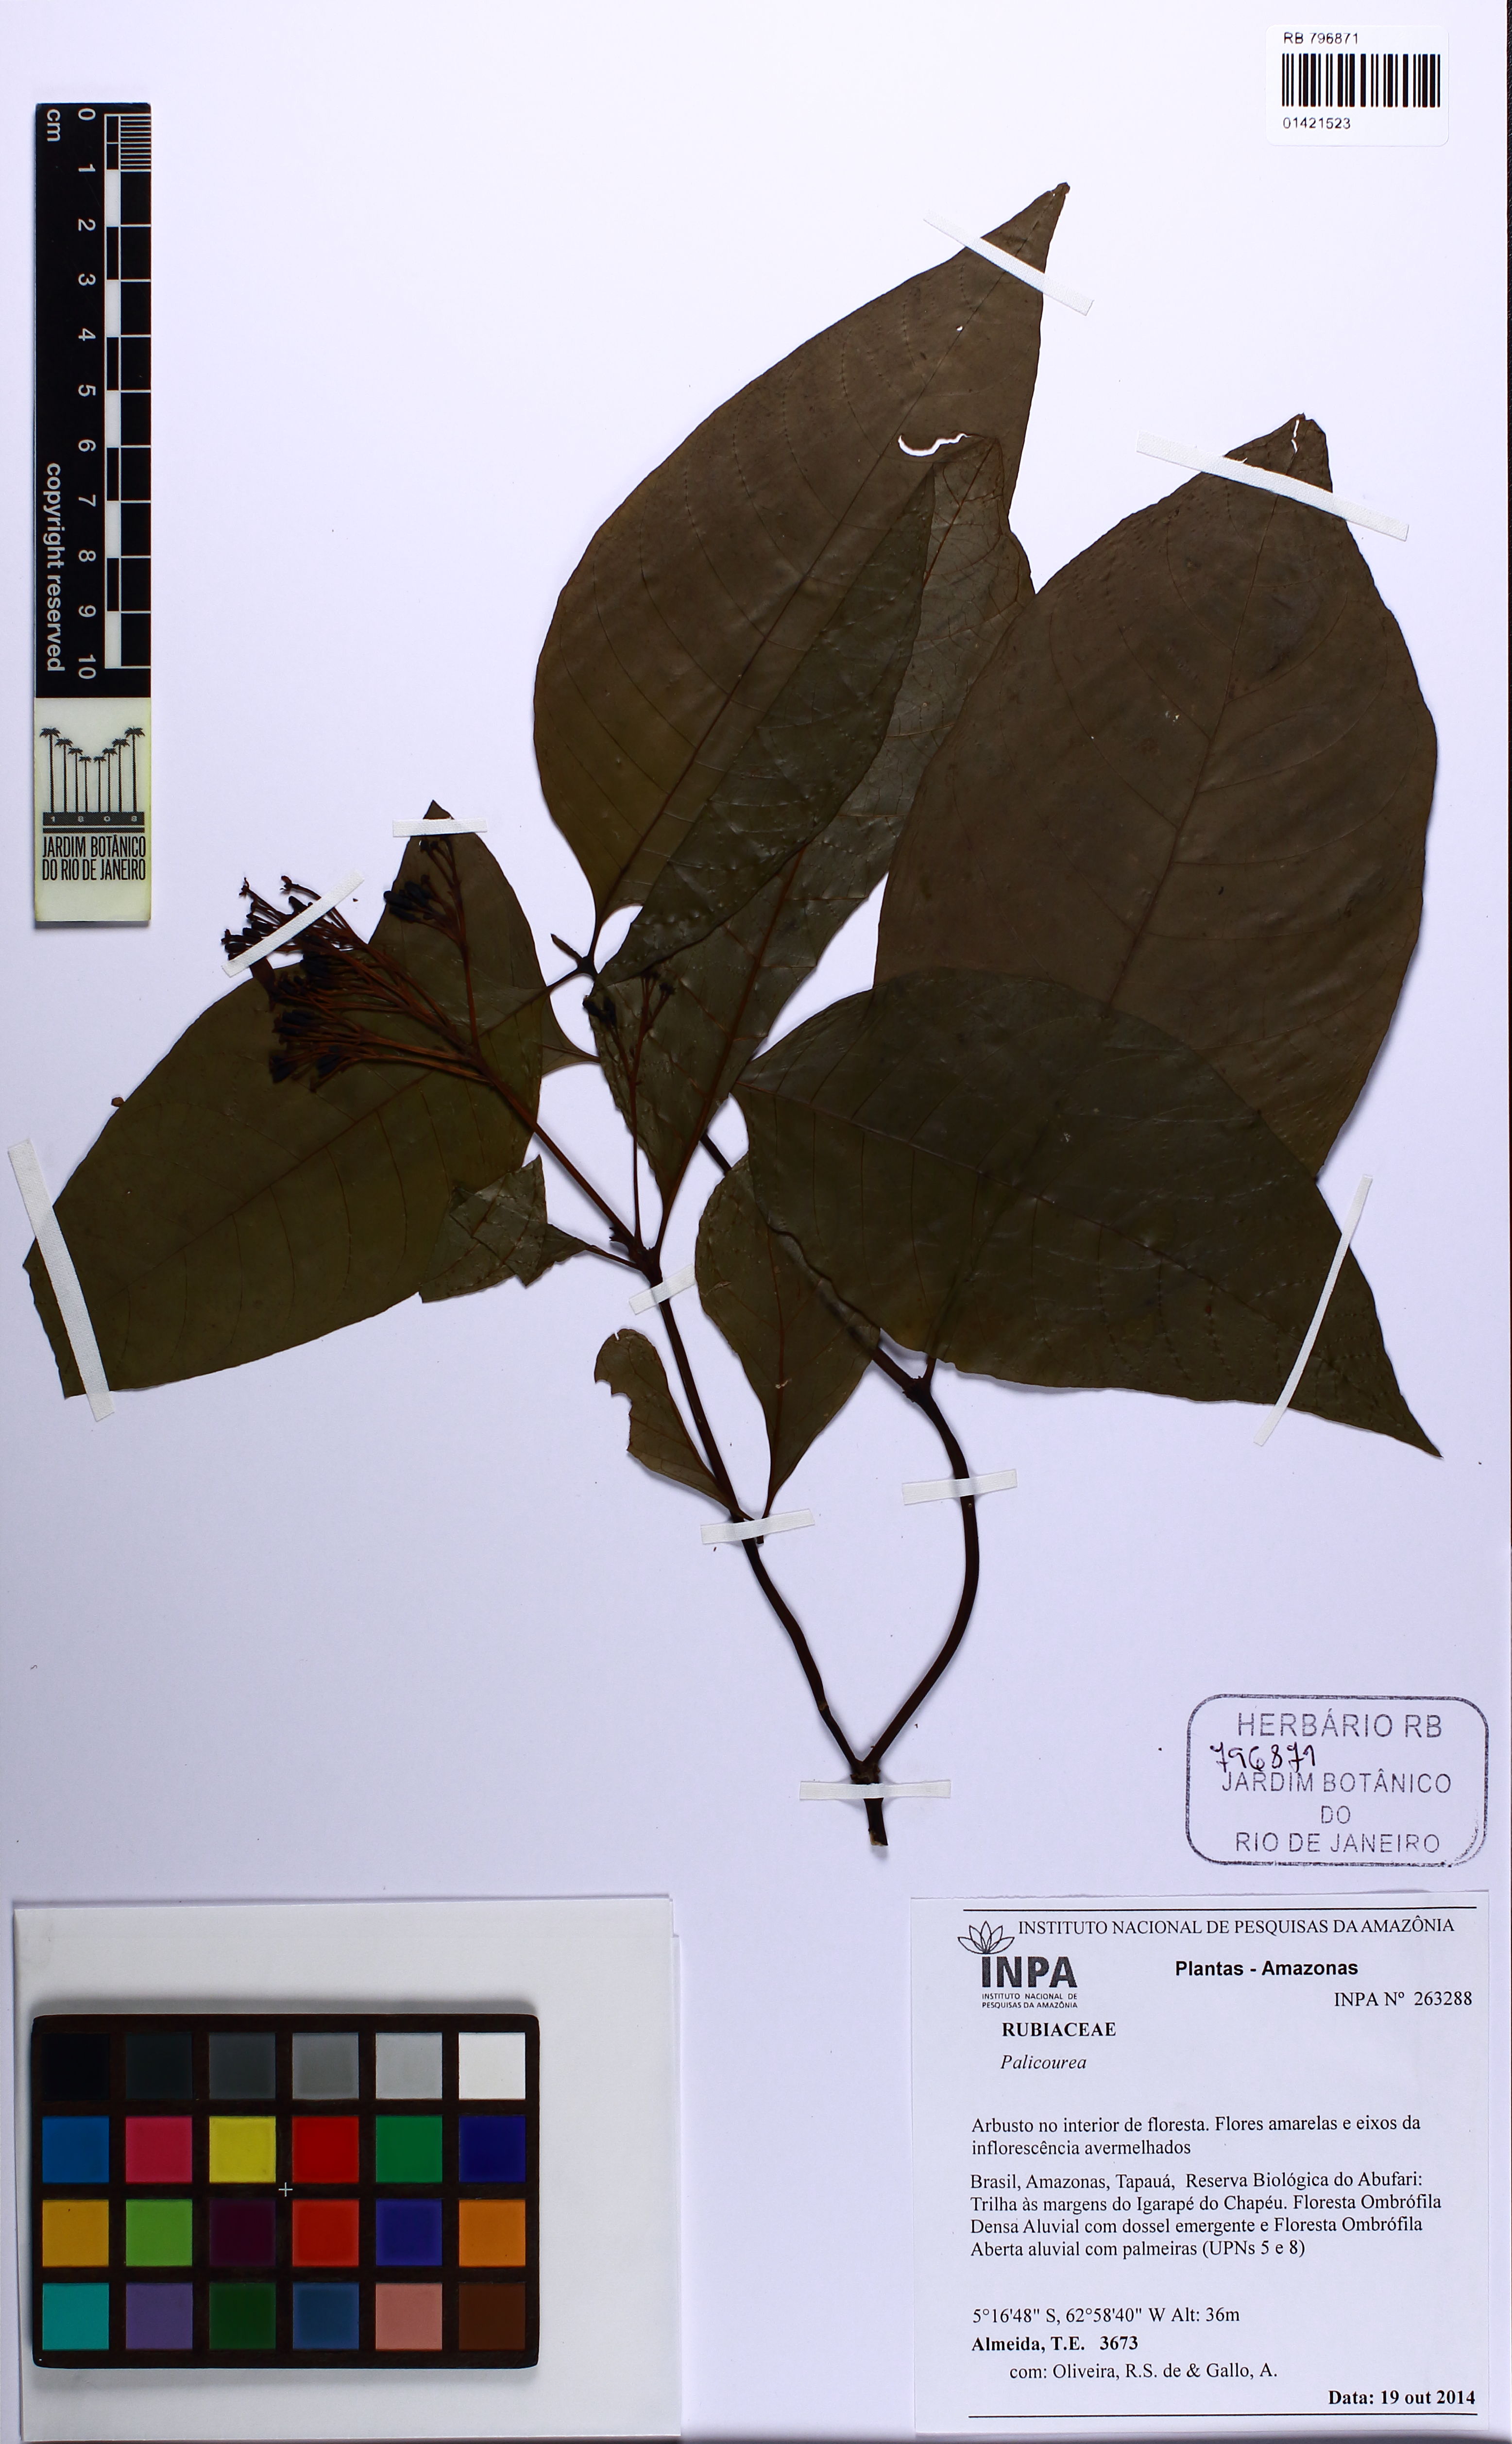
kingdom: Plantae
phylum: Tracheophyta
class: Magnoliopsida
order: Gentianales
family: Rubiaceae
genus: Palicourea
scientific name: Palicourea
